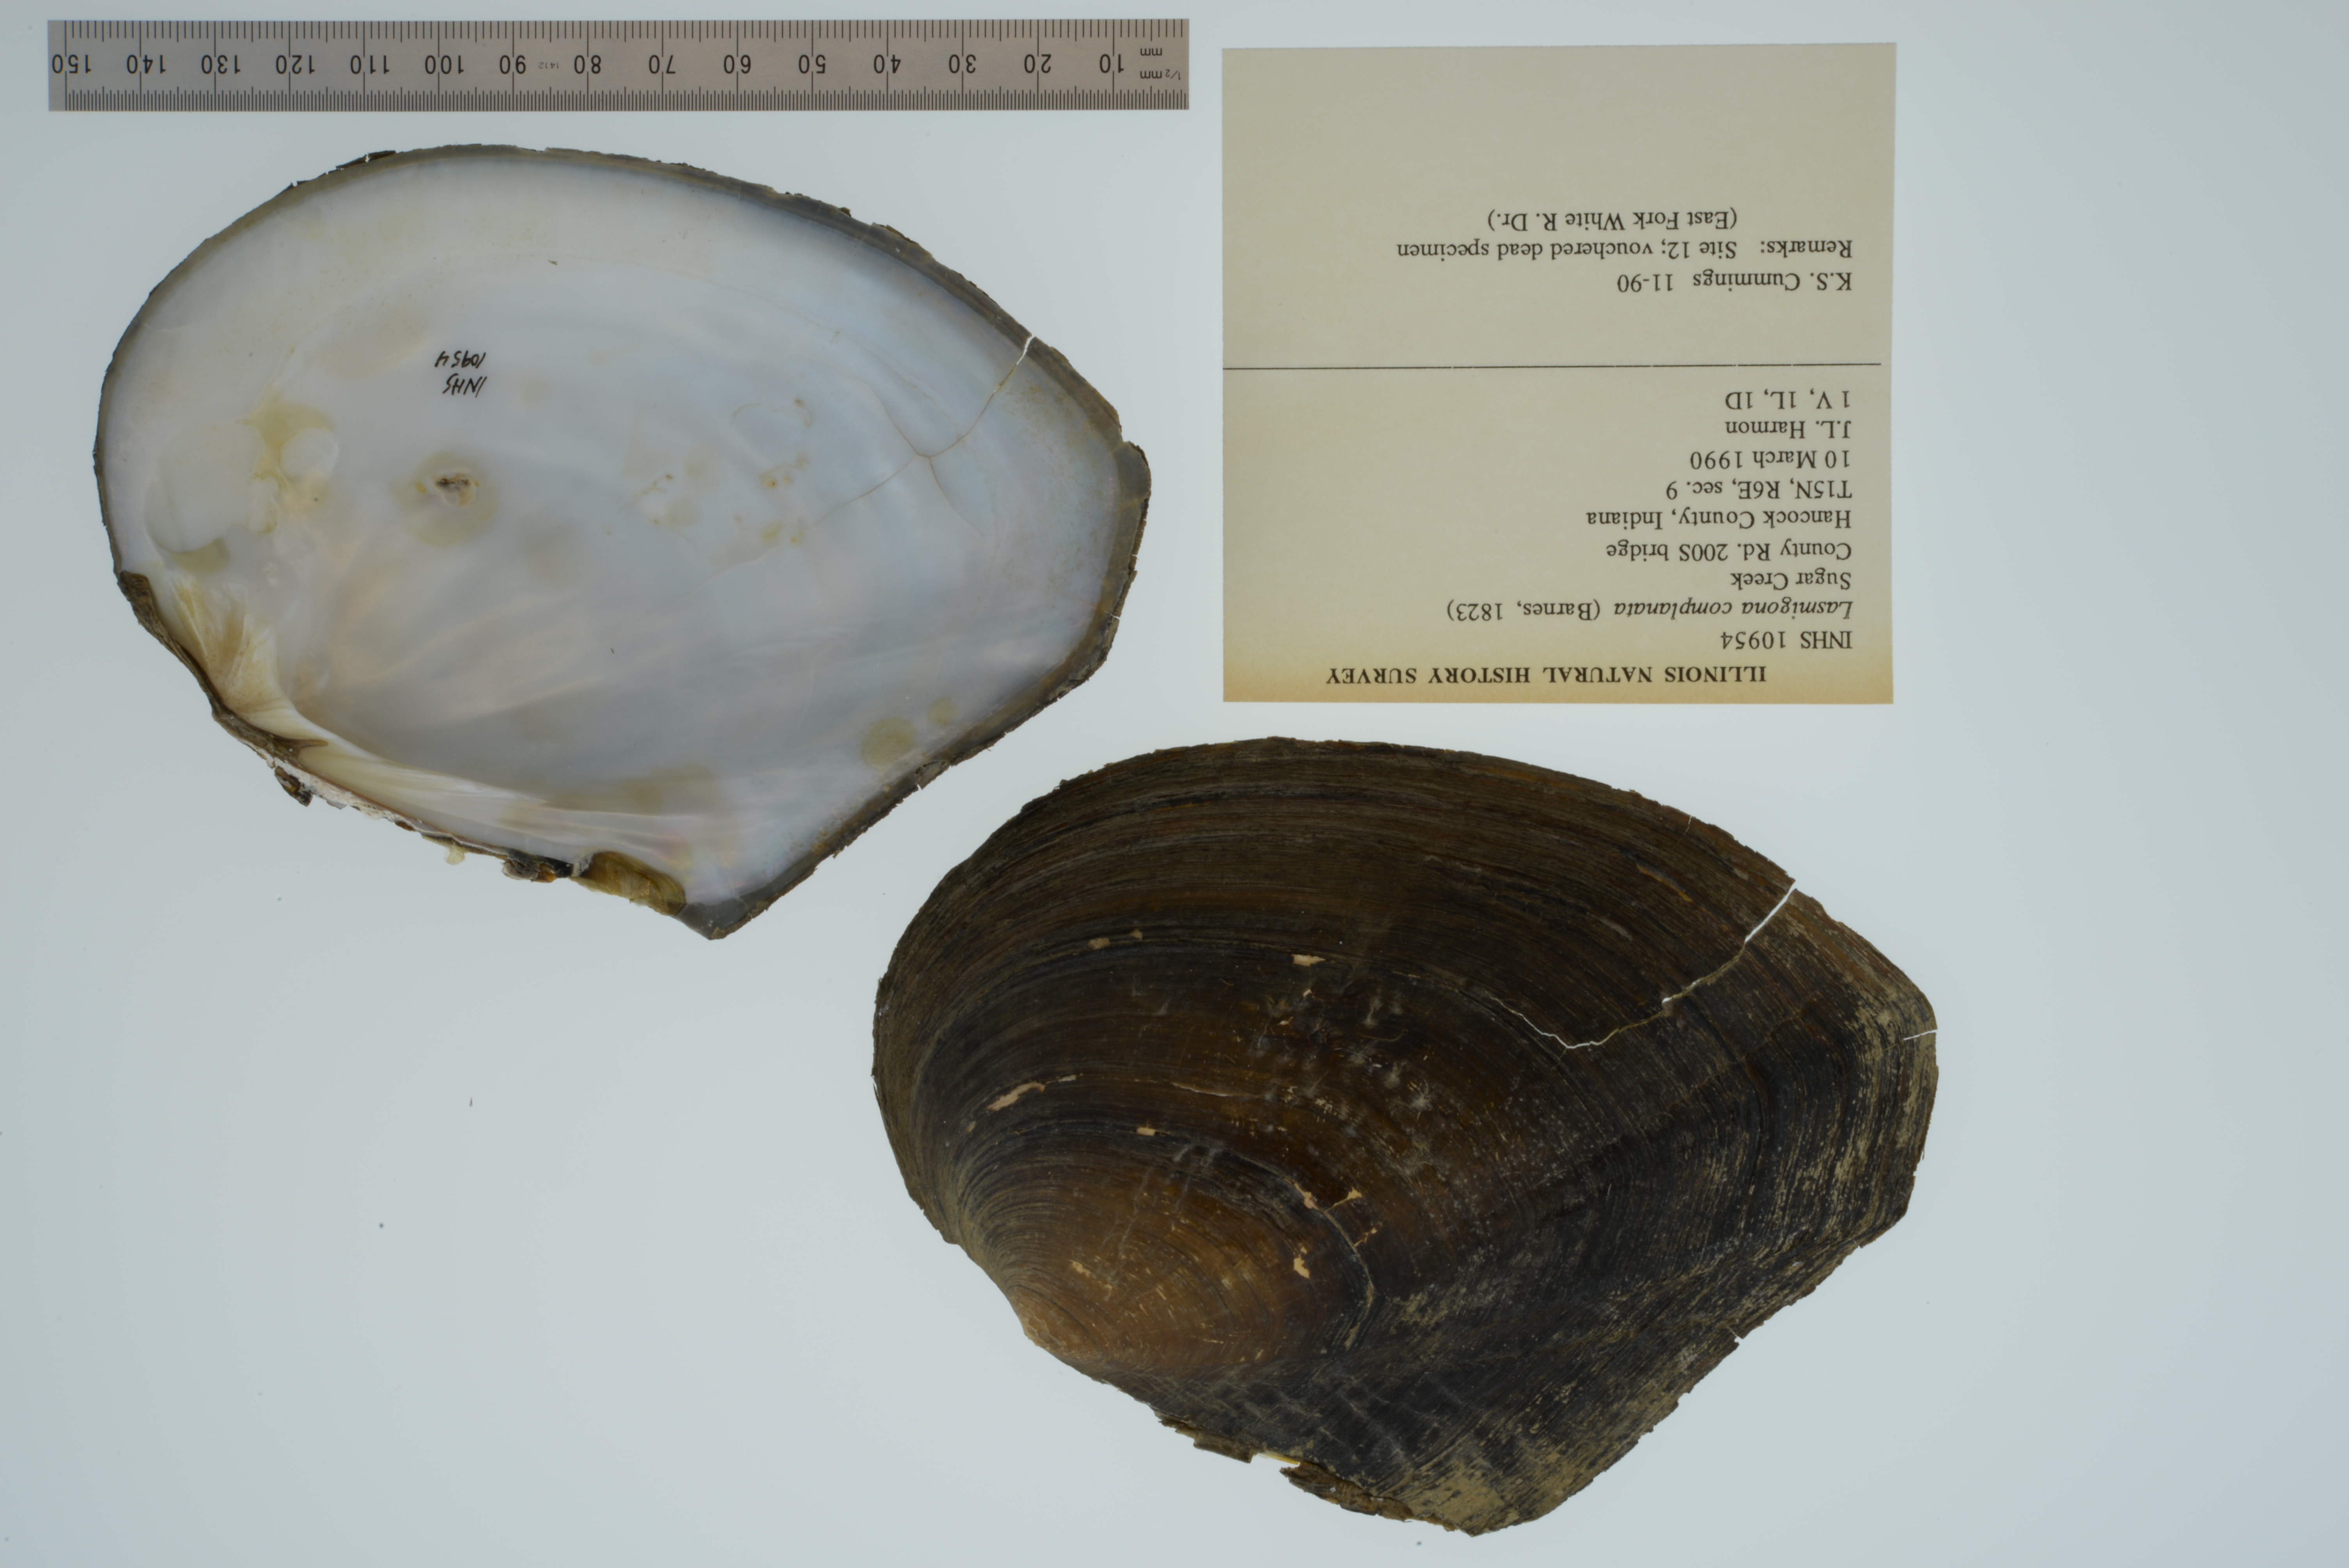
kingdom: Animalia
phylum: Mollusca
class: Bivalvia
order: Unionida
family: Unionidae
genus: Lasmigona
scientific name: Lasmigona complanata
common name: White heelsplitter
